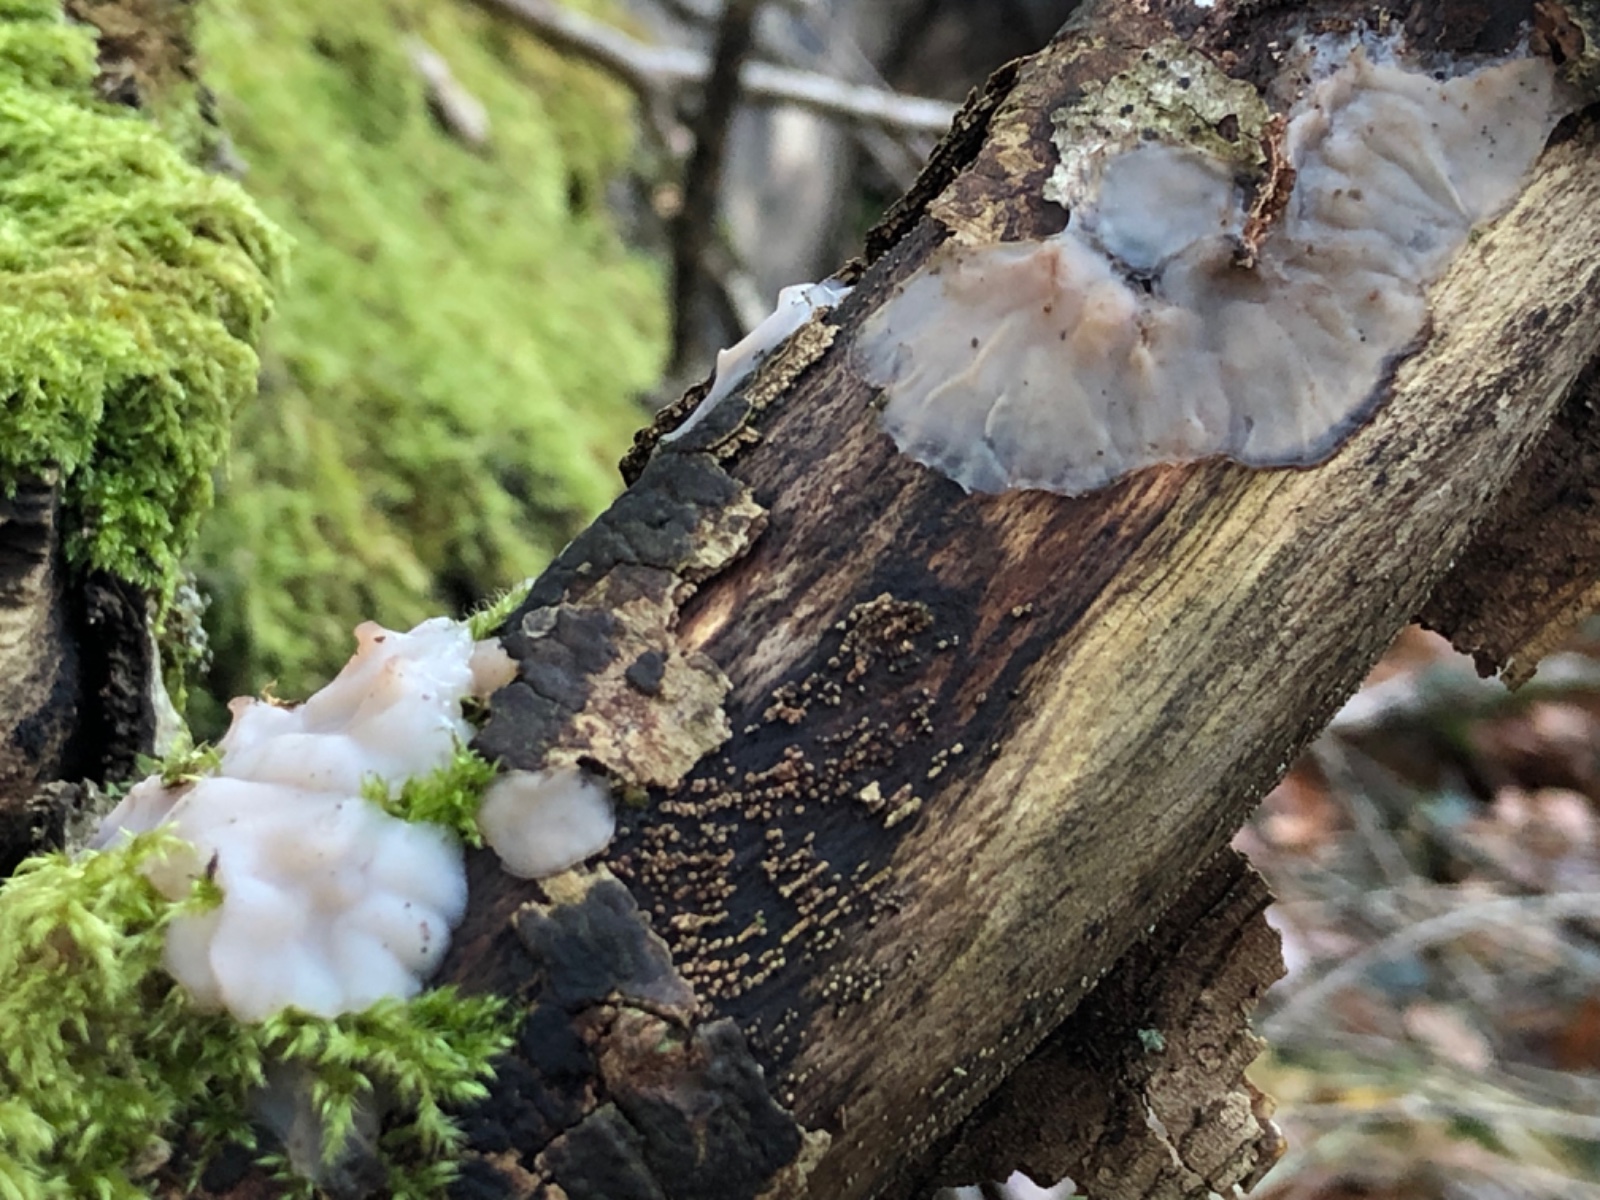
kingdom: Fungi
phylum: Basidiomycota
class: Agaricomycetes
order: Auriculariales
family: Auriculariaceae
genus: Exidia
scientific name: Exidia thuretiana
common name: hvidlig bævretop
